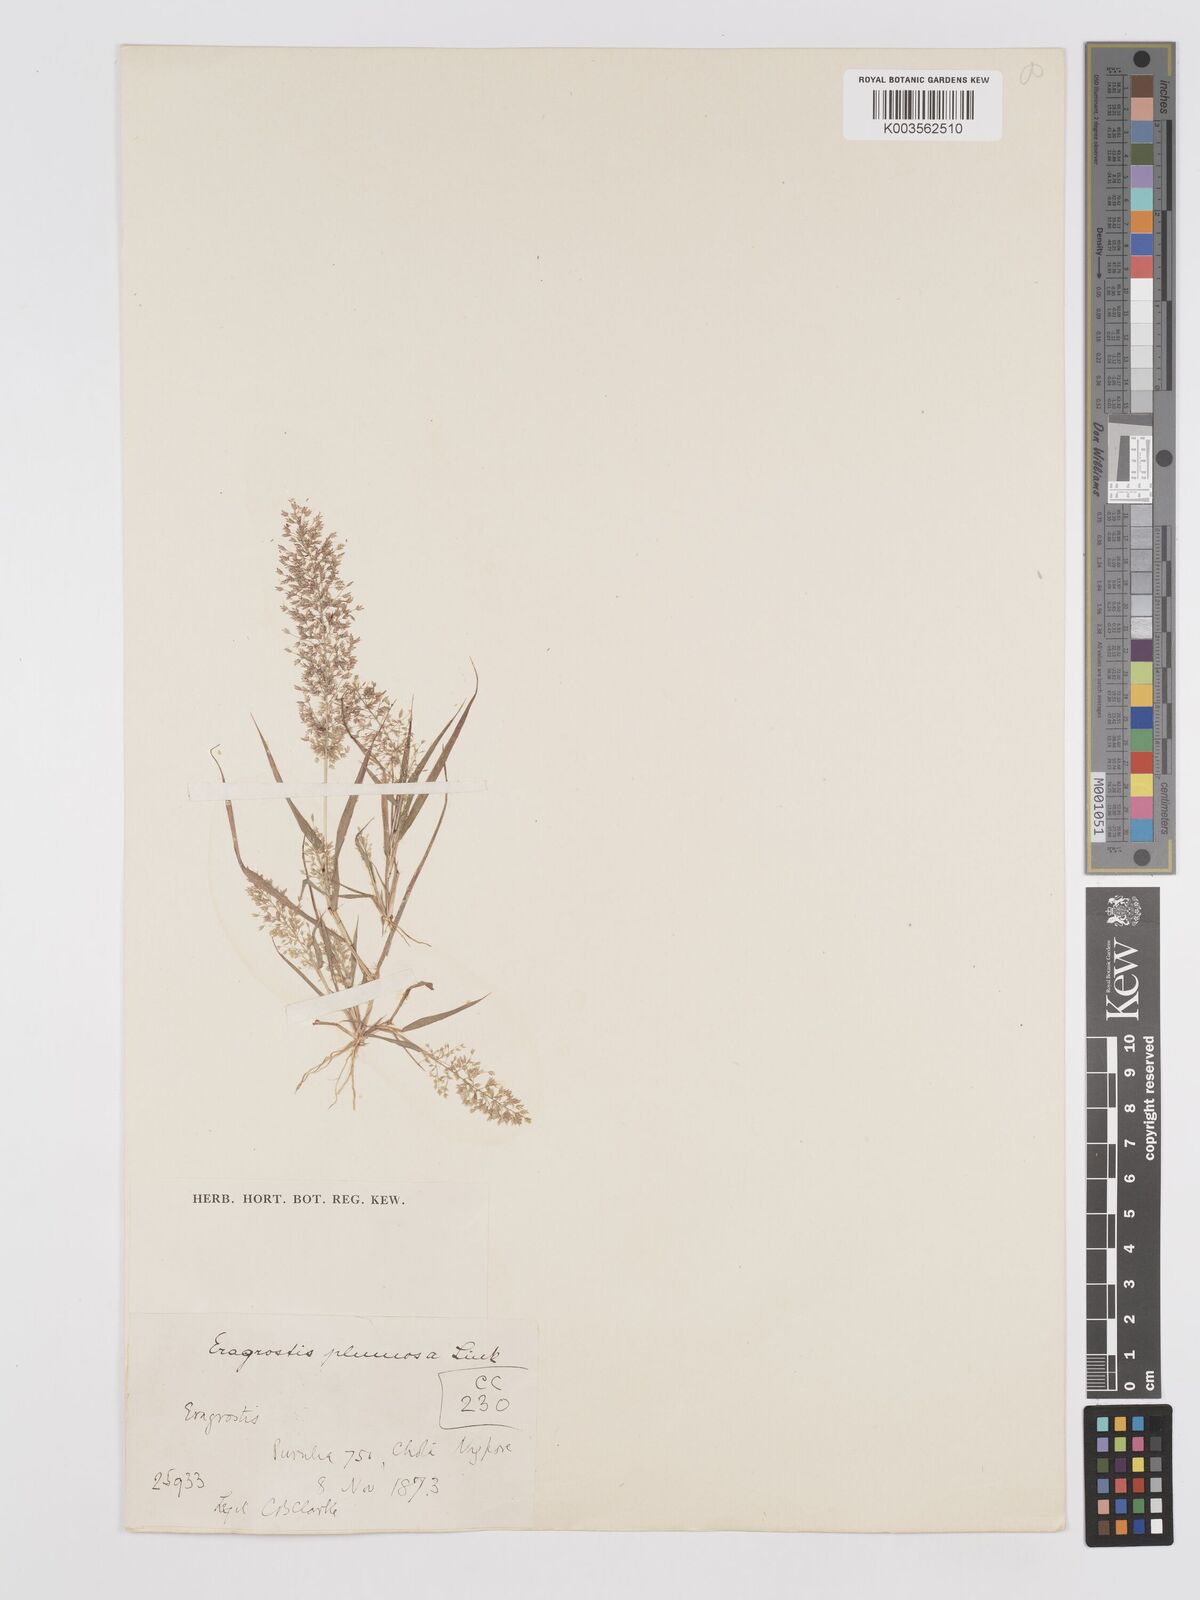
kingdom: Plantae
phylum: Tracheophyta
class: Liliopsida
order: Poales
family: Poaceae
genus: Eragrostis
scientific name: Eragrostis tenella
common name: Japanese lovegrass
